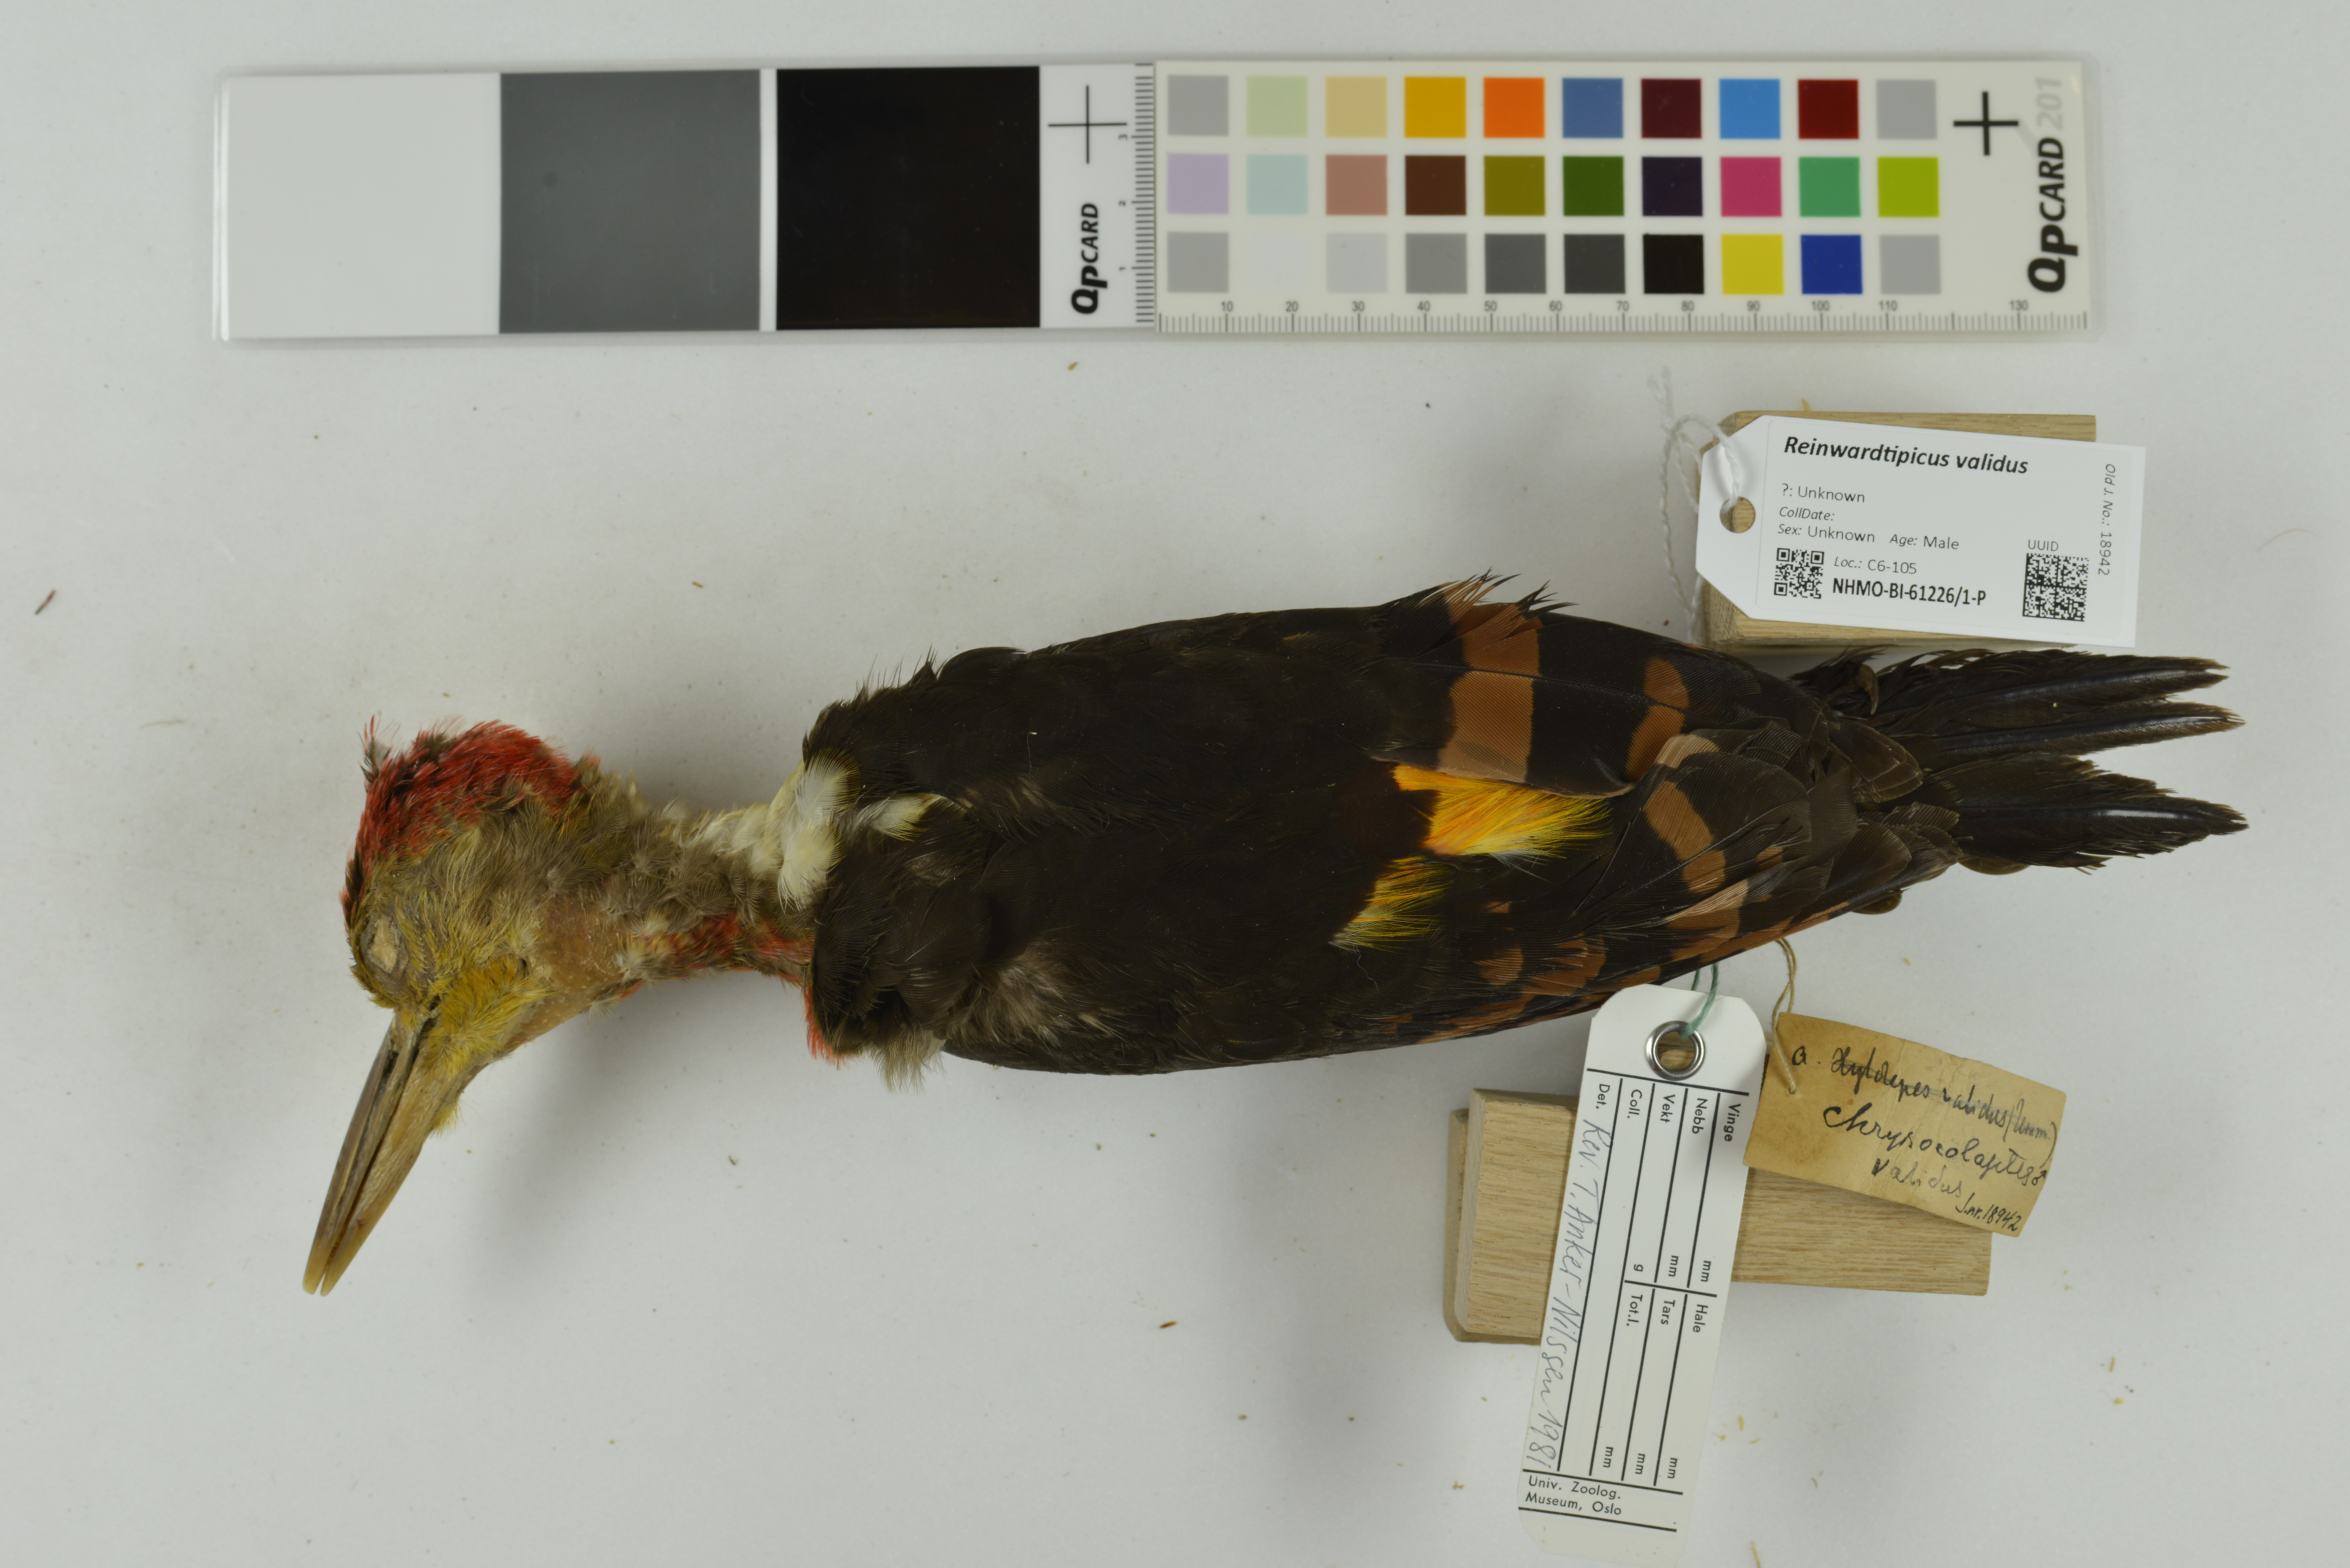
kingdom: Animalia
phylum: Chordata
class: Aves
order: Piciformes
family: Picidae
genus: Reinwardtipicus
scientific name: Reinwardtipicus validus
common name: Orange-backed woodpecker
